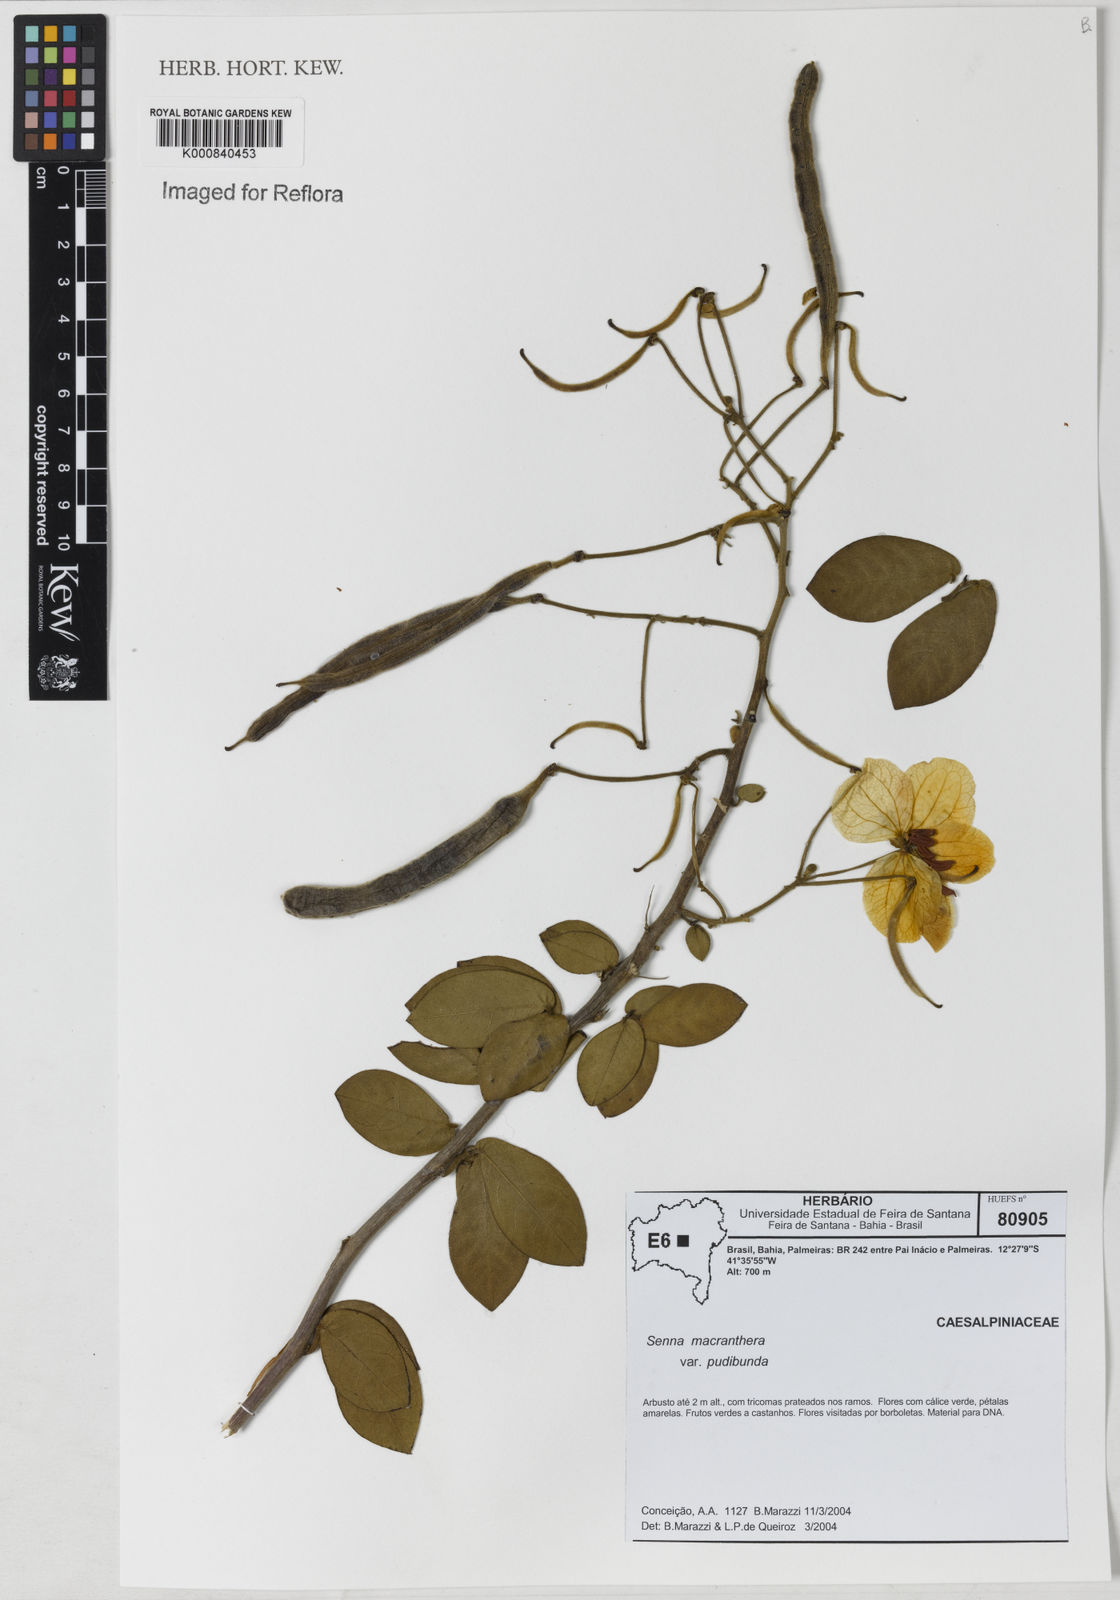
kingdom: Plantae
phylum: Tracheophyta
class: Magnoliopsida
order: Fabales
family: Fabaceae
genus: Senna
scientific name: Senna macranthera
